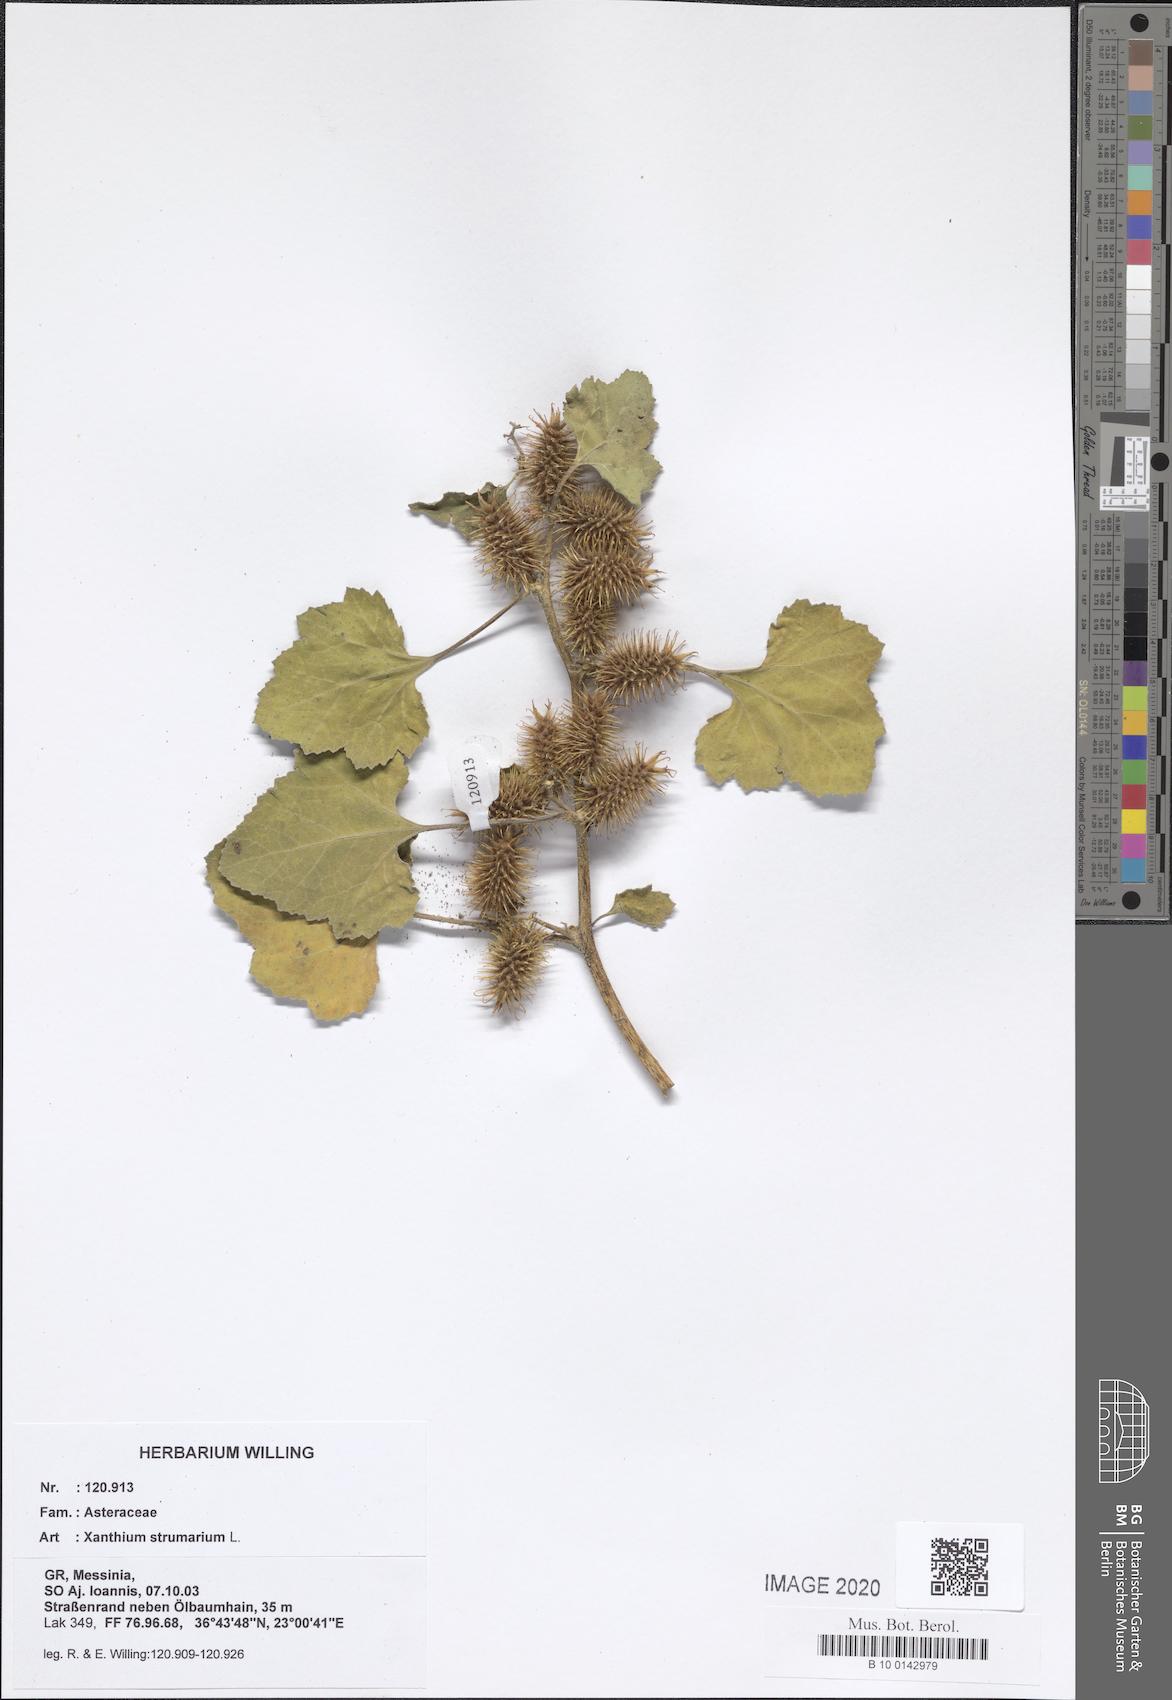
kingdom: Plantae
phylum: Tracheophyta
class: Magnoliopsida
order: Asterales
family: Asteraceae
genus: Xanthium
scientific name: Xanthium strumarium
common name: Rough cocklebur
